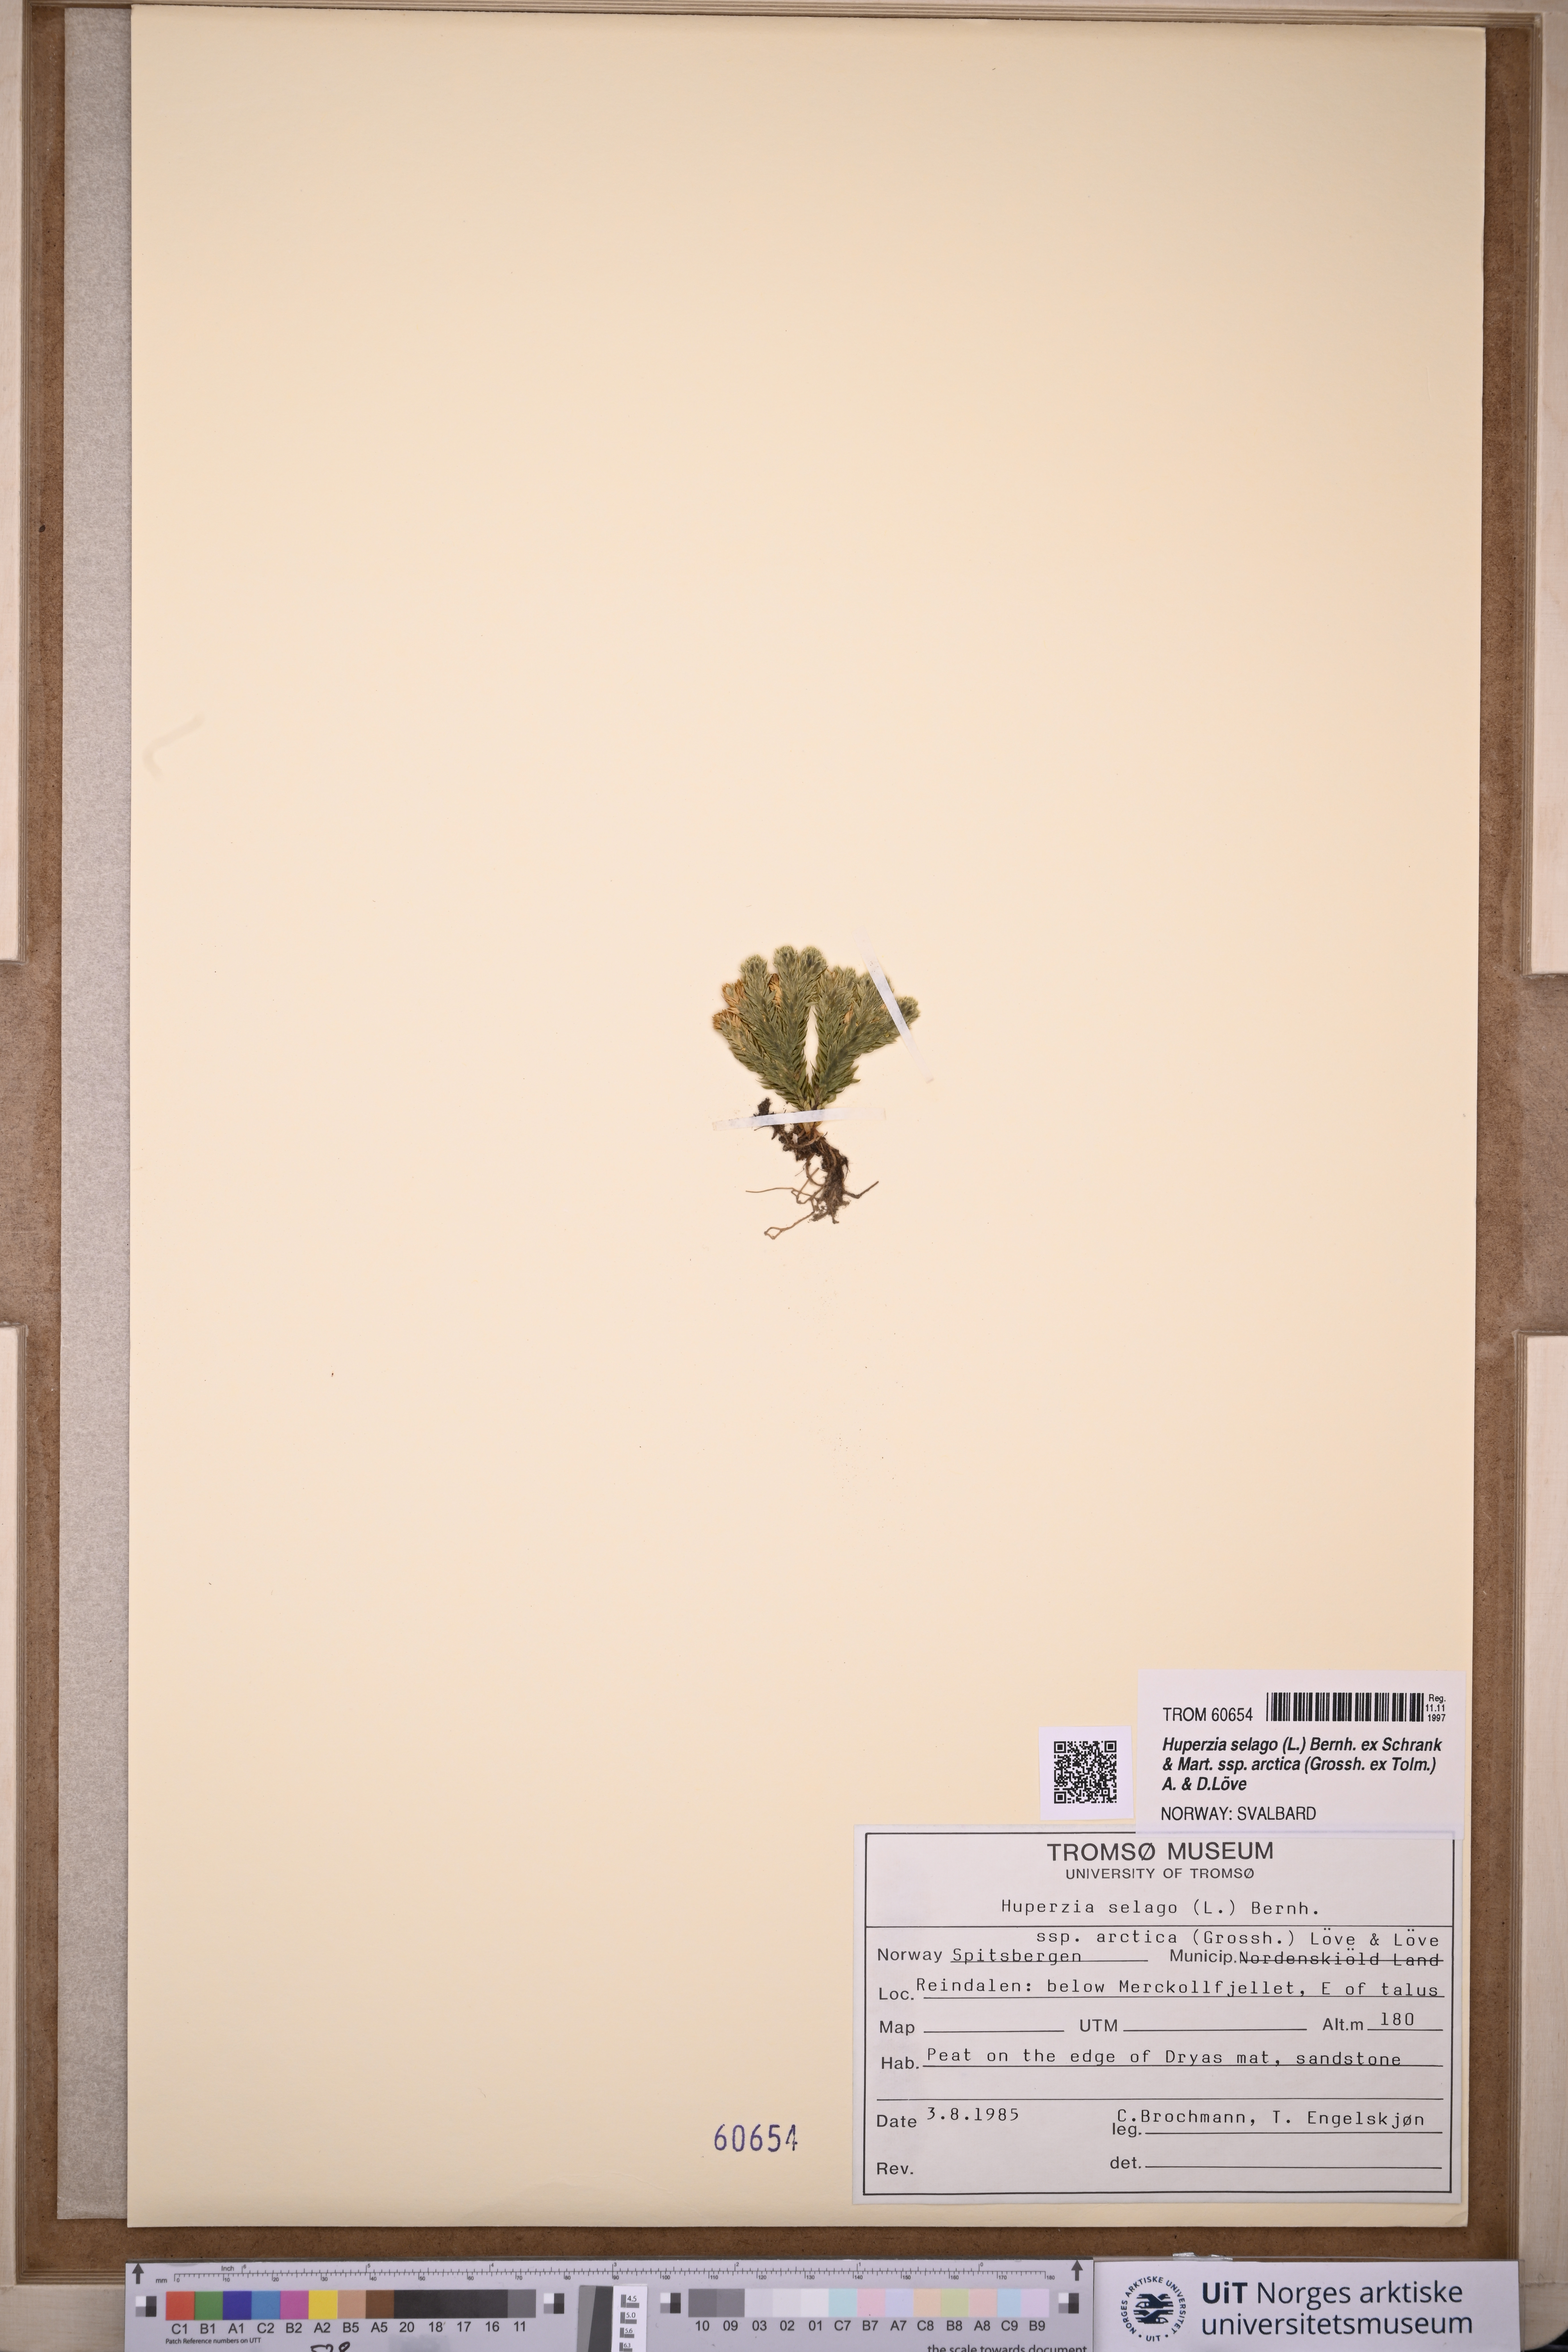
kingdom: Plantae
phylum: Tracheophyta
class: Lycopodiopsida
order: Lycopodiales
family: Lycopodiaceae
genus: Huperzia
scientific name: Huperzia selago
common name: Northern firmoss
